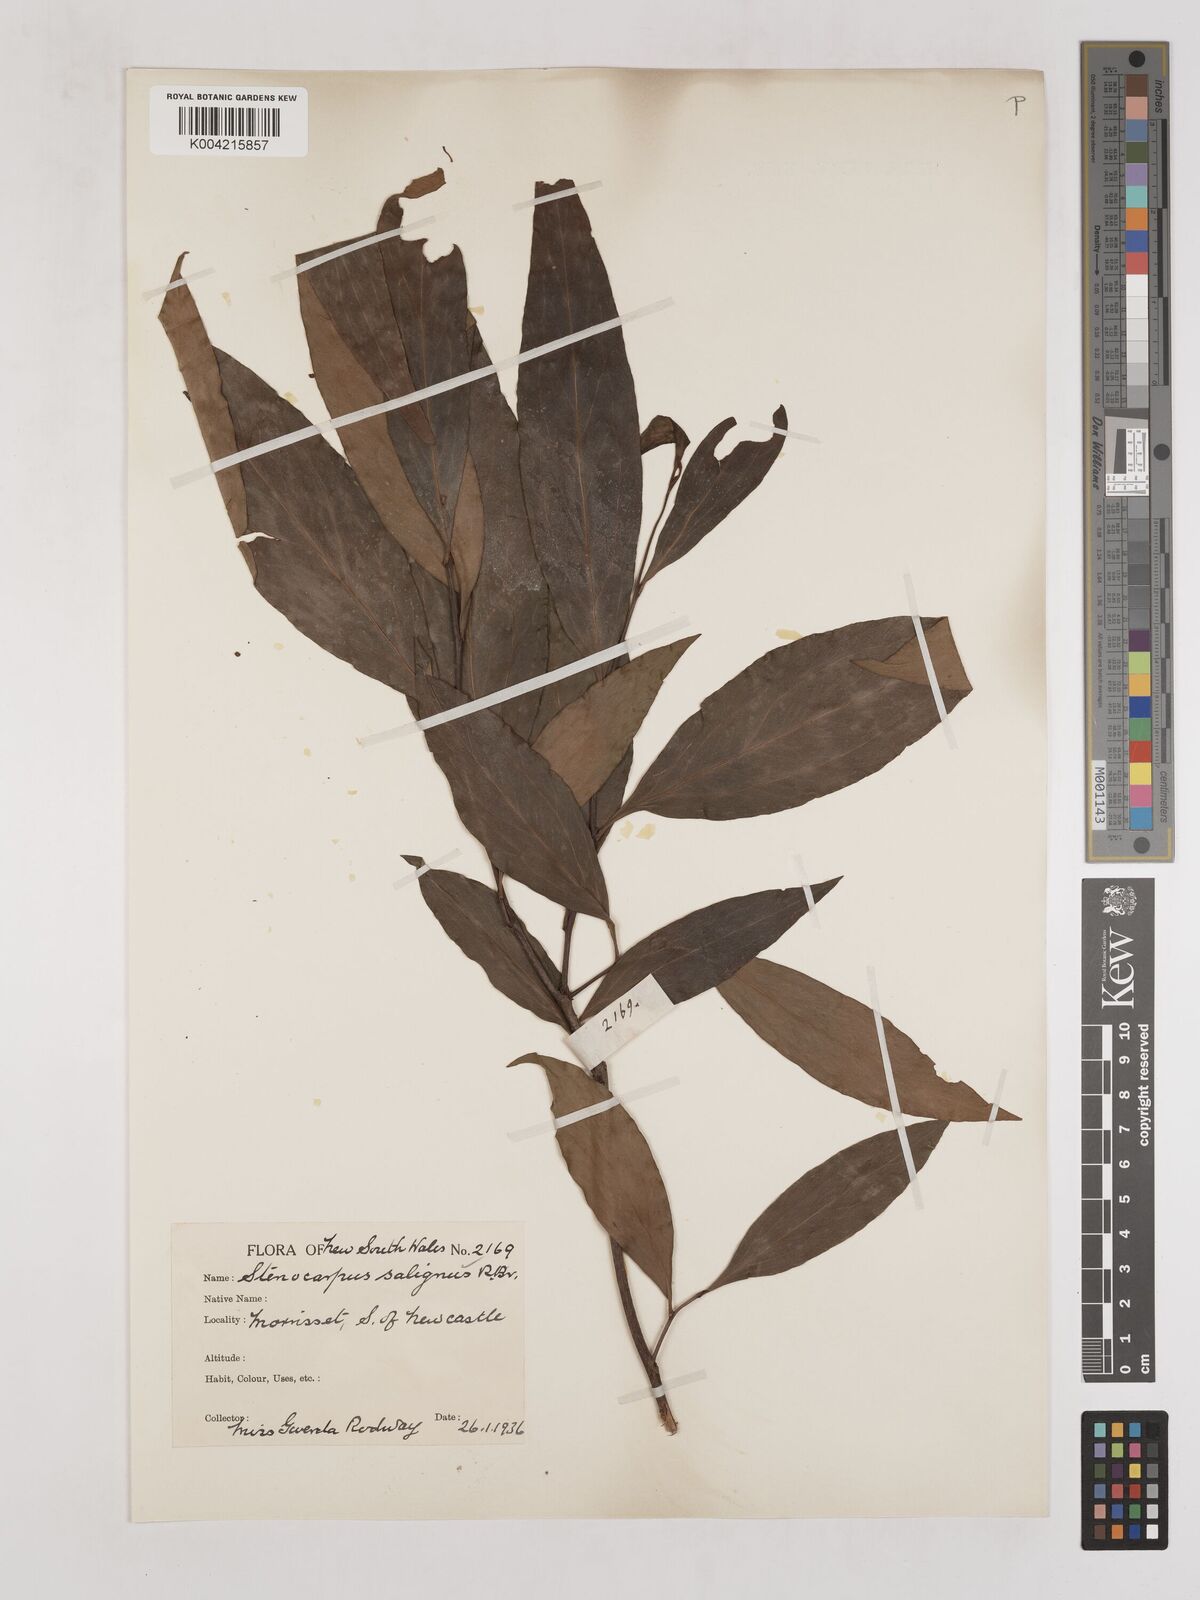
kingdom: Plantae
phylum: Tracheophyta
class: Magnoliopsida
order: Proteales
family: Proteaceae
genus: Stenocarpus
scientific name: Stenocarpus salignus
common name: Red silky-oak
